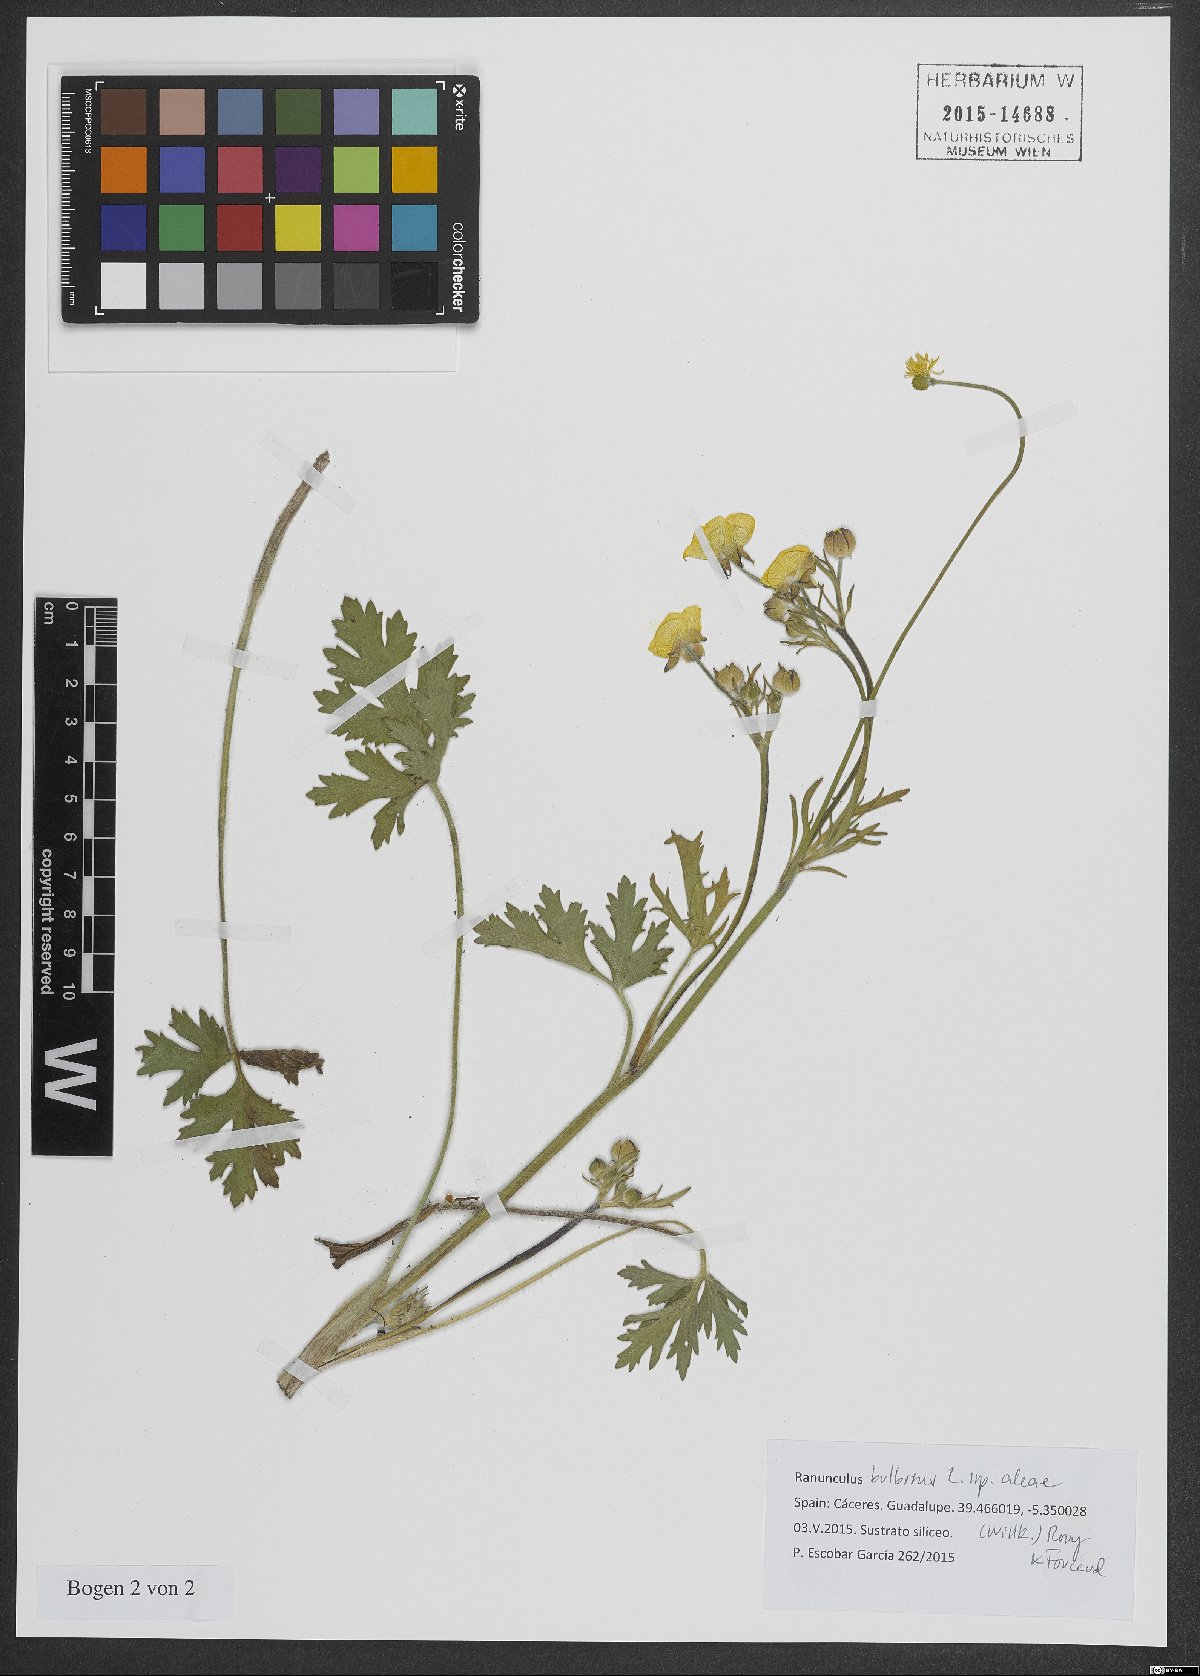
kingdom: Plantae
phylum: Tracheophyta
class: Magnoliopsida
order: Ranunculales
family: Ranunculaceae
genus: Ranunculus
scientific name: Ranunculus neapolitanus
